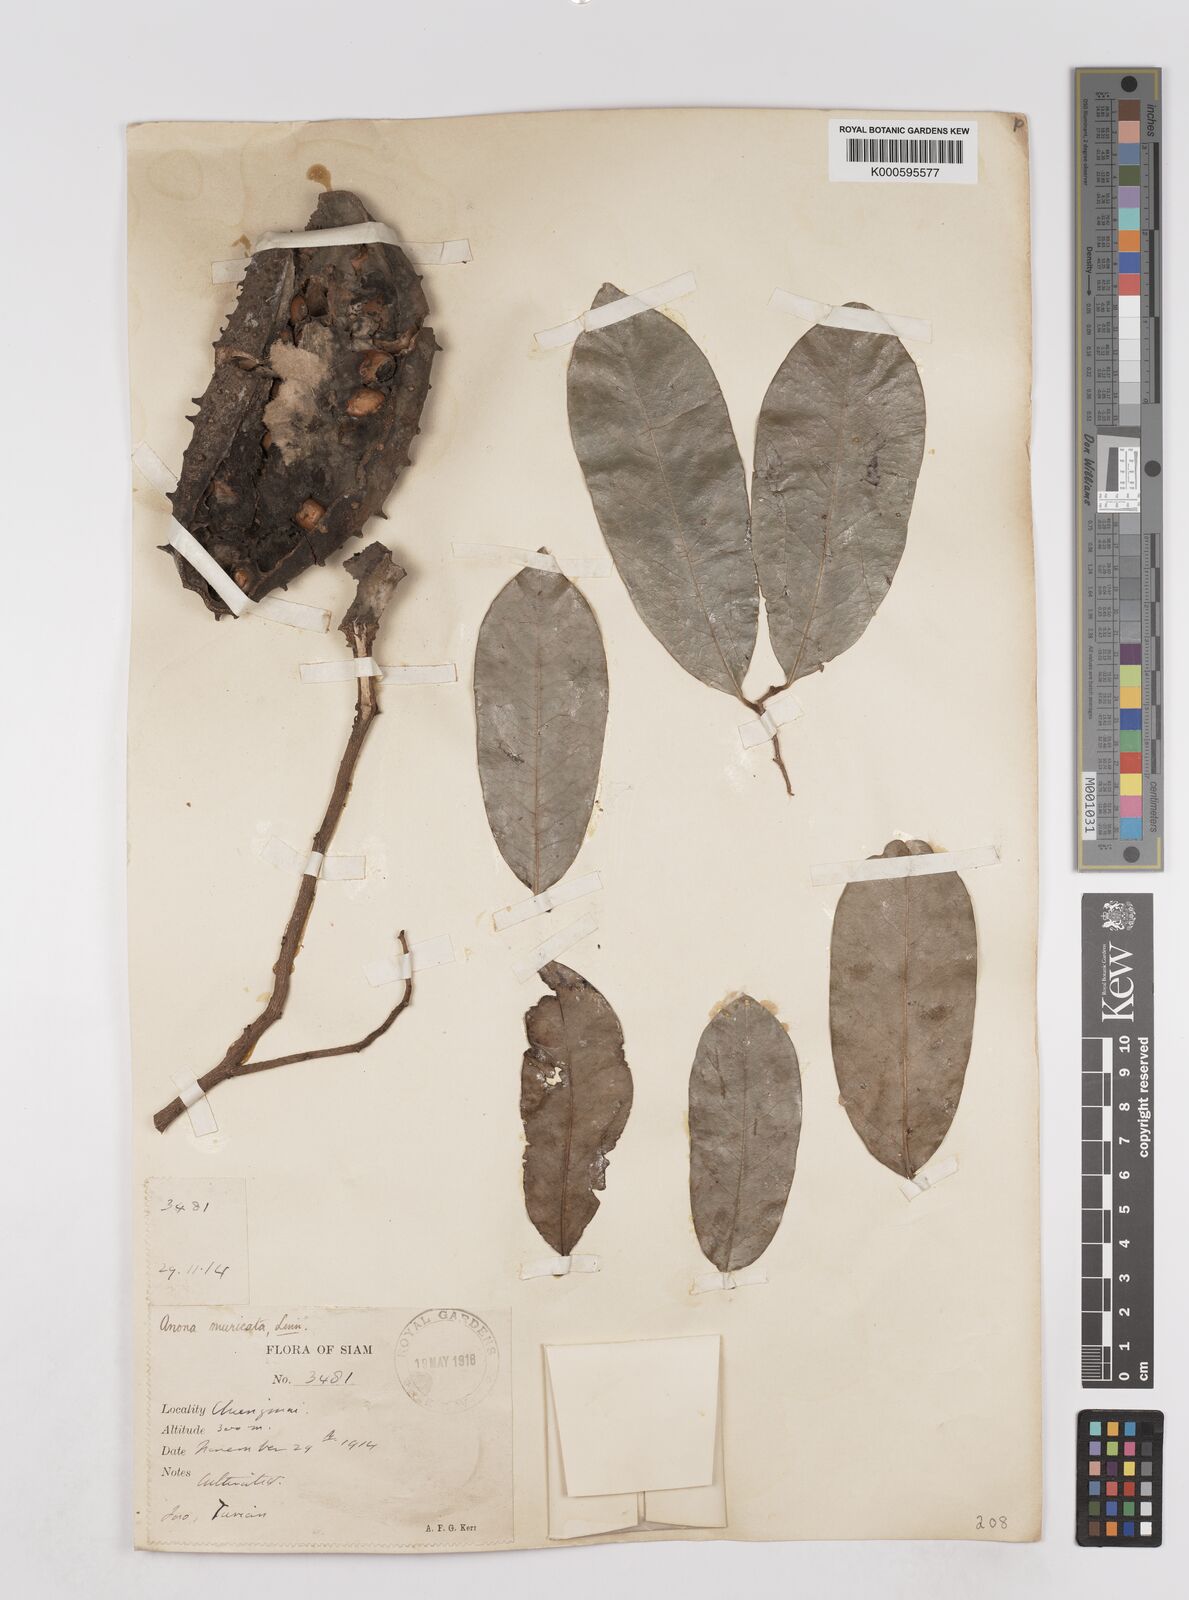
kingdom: Plantae
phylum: Tracheophyta
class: Magnoliopsida
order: Magnoliales
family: Annonaceae
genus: Annona
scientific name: Annona muricata
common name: Soursop
